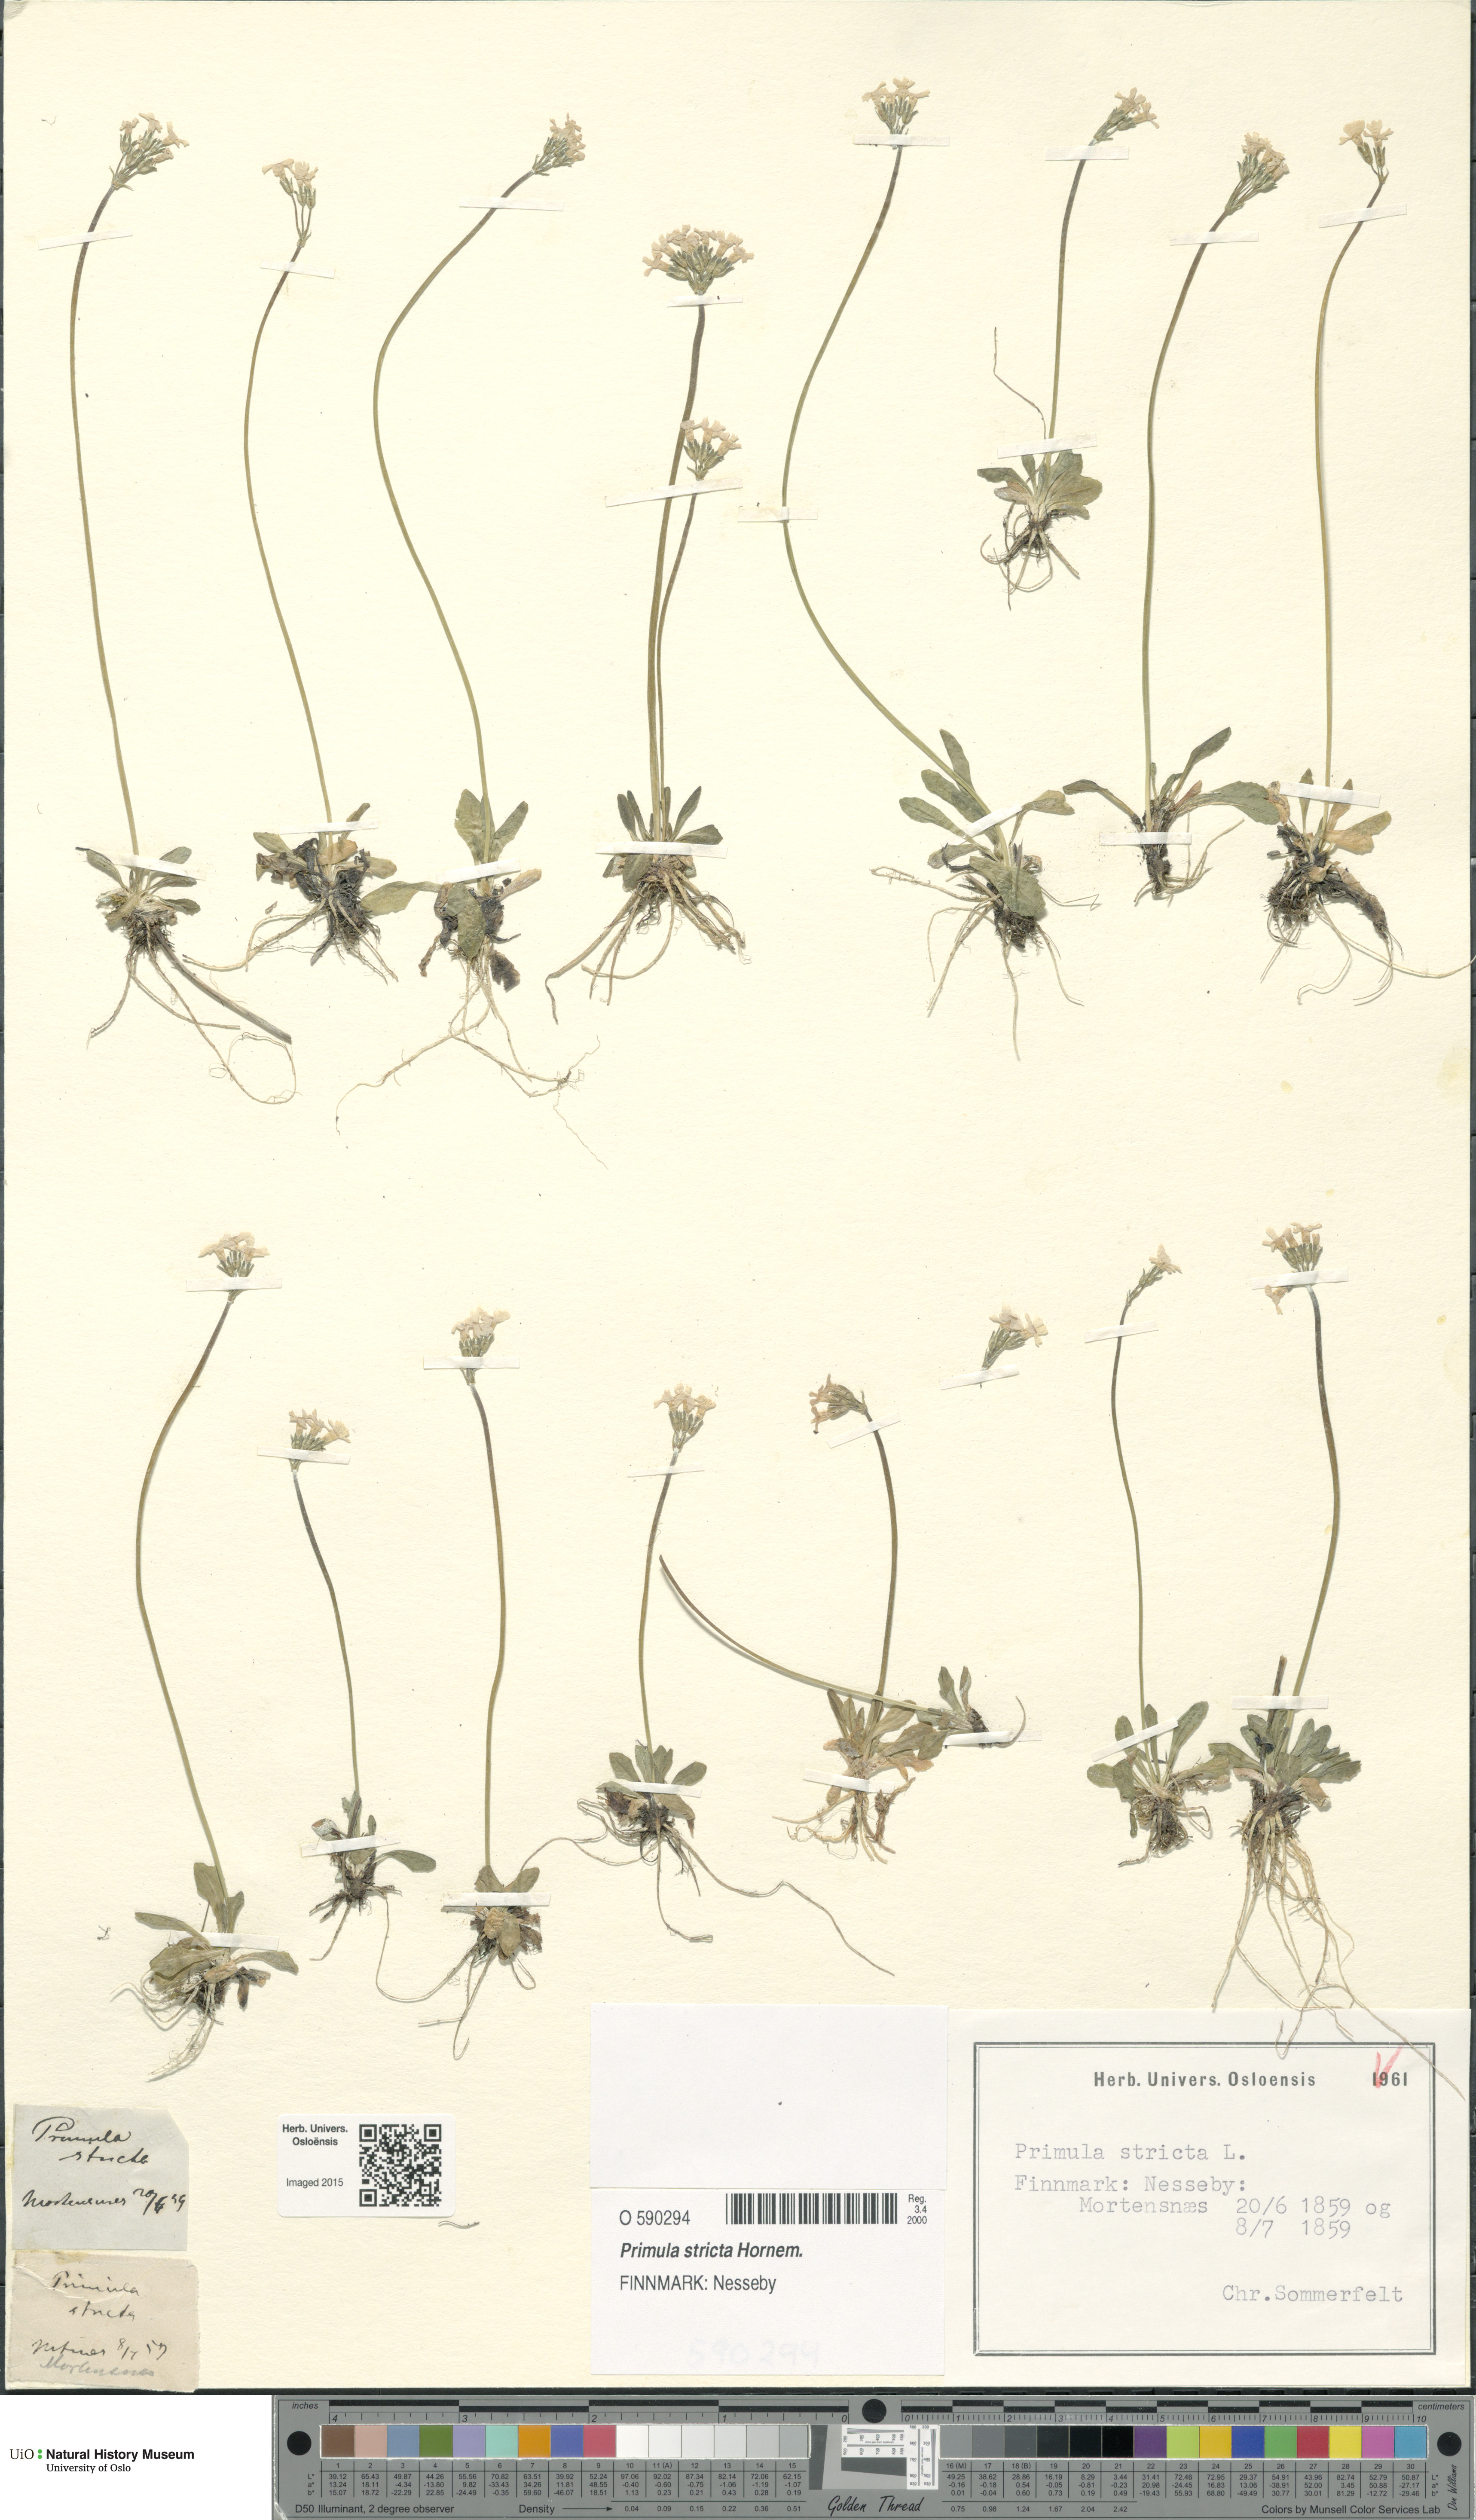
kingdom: Plantae
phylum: Tracheophyta
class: Magnoliopsida
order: Ericales
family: Primulaceae
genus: Primula
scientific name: Primula stricta
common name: Coastal primrose
